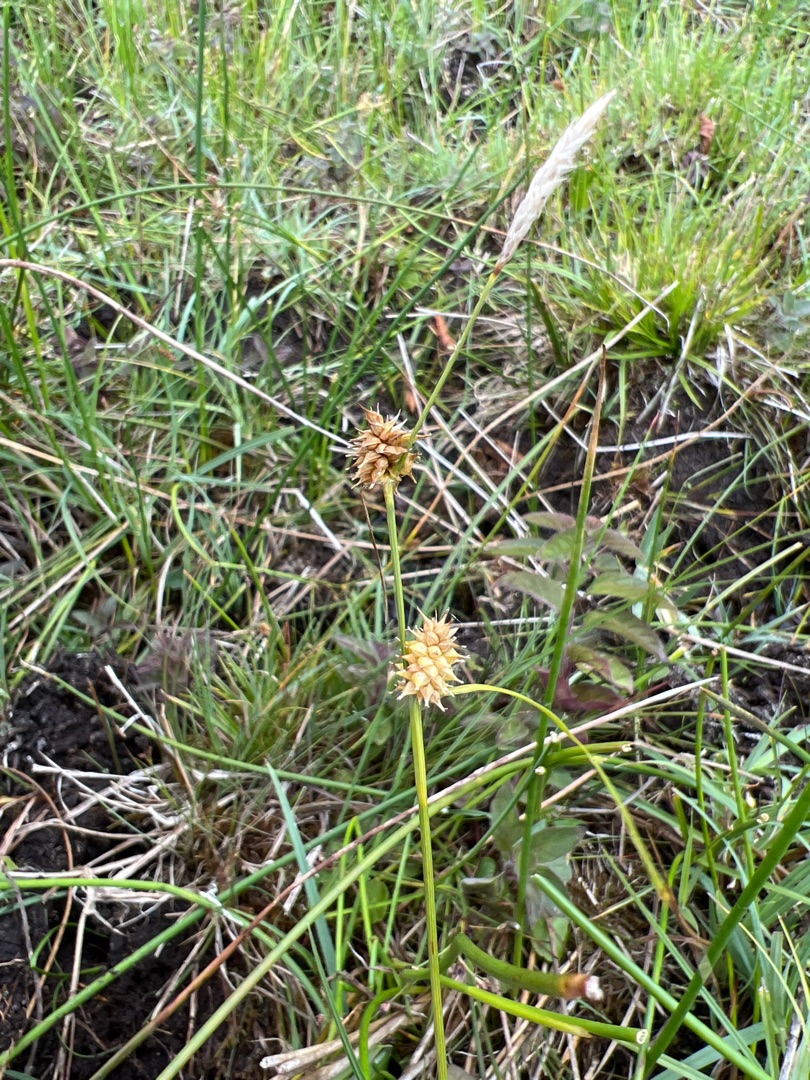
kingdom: Plantae
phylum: Tracheophyta
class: Liliopsida
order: Poales
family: Cyperaceae
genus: Carex
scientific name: Carex lepidocarpa
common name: Krognæb-star
